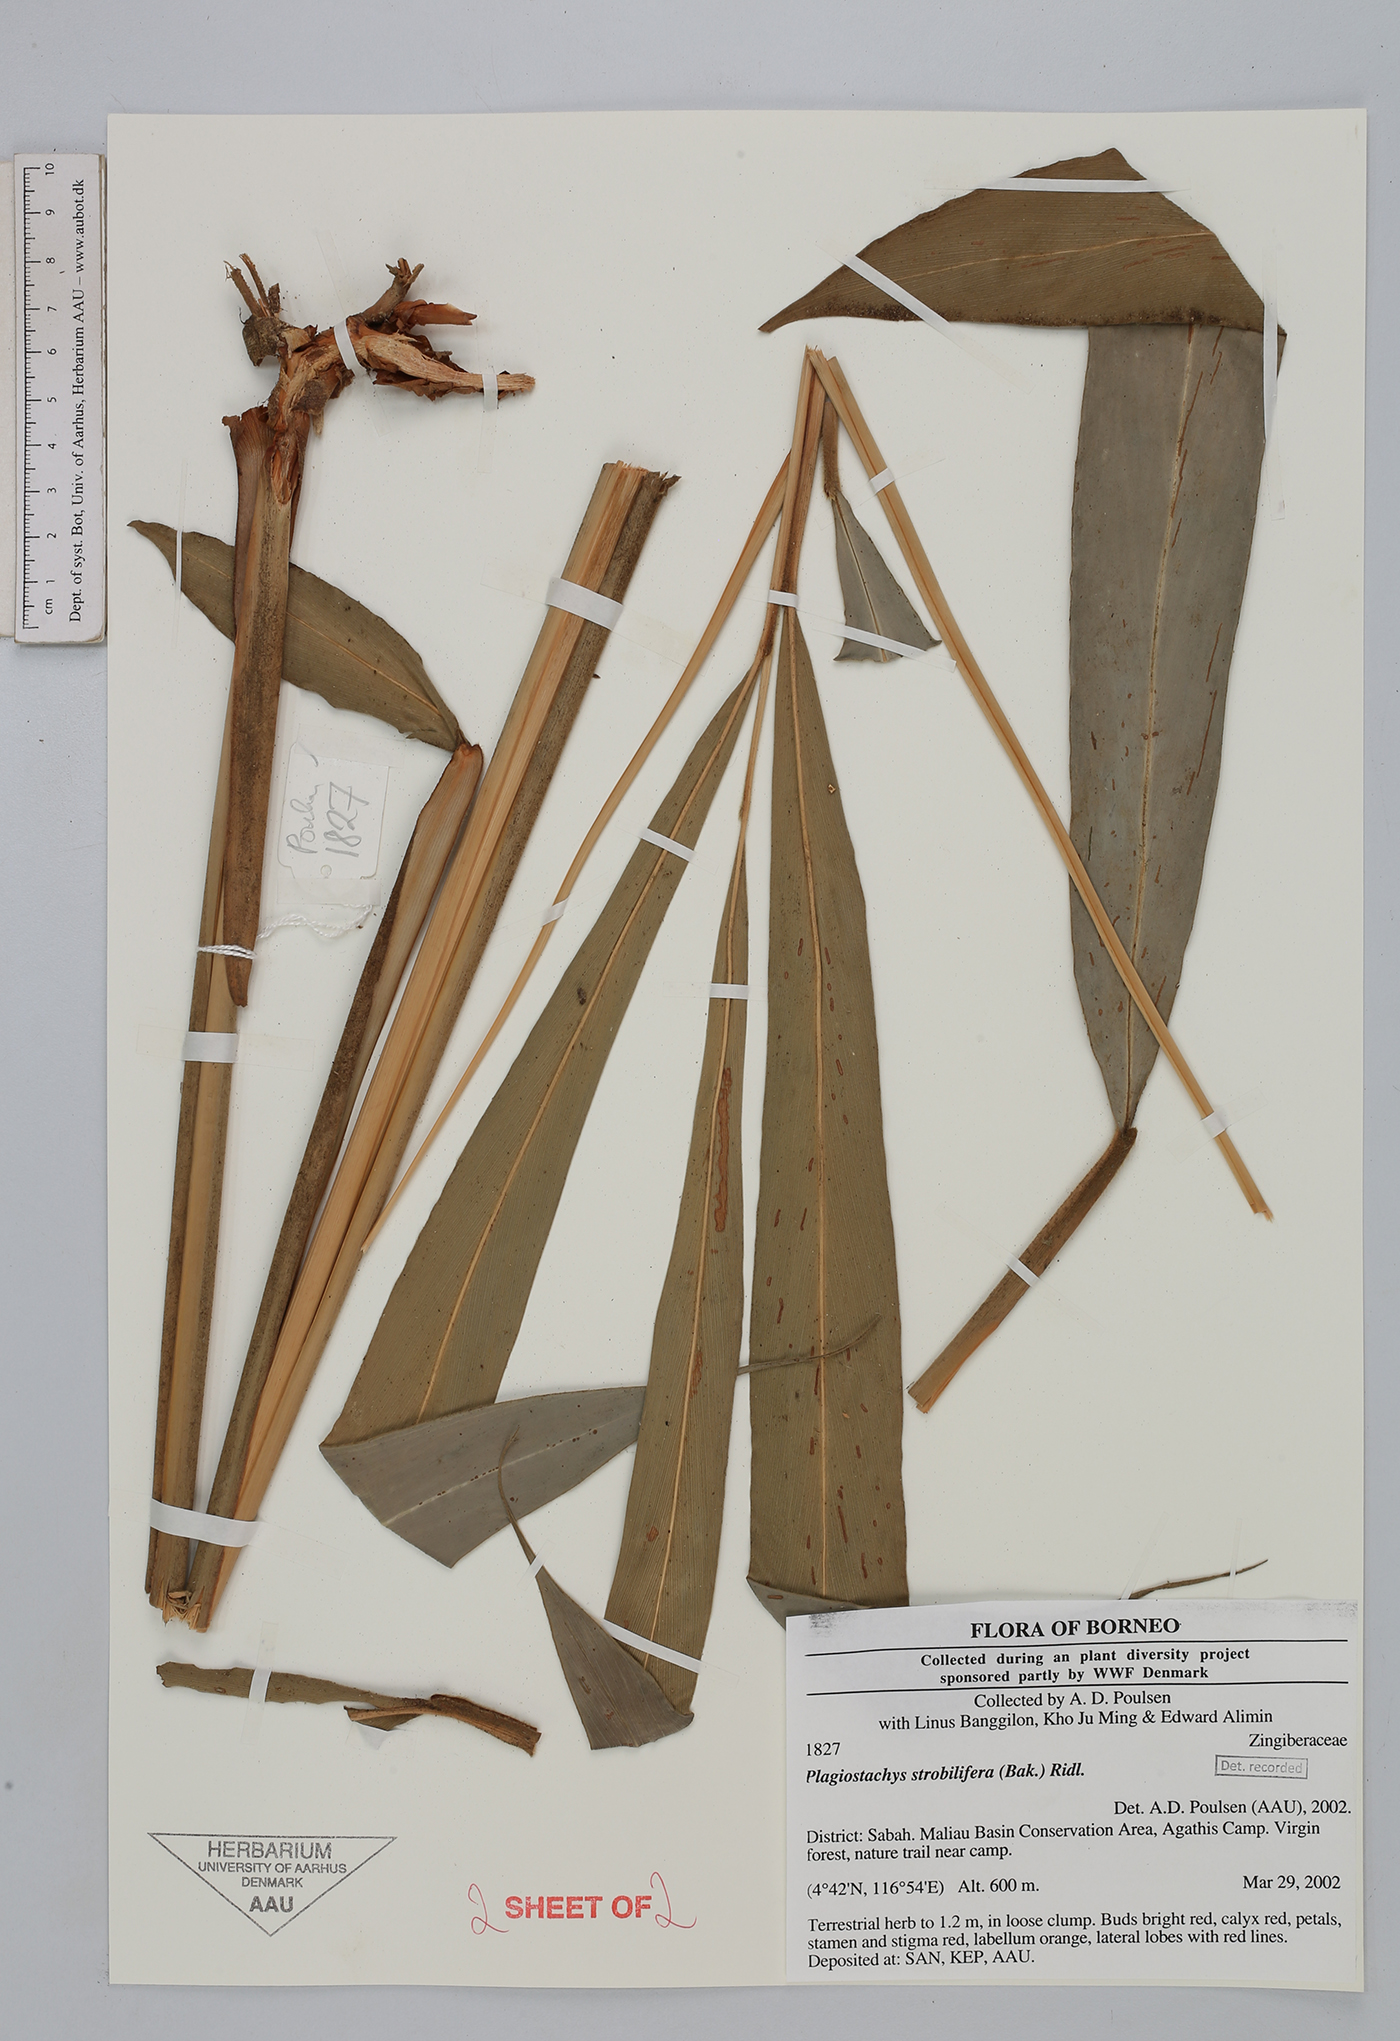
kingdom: Plantae
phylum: Tracheophyta
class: Liliopsida
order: Zingiberales
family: Zingiberaceae
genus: Plagiostachys
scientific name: Plagiostachys strobilifera
